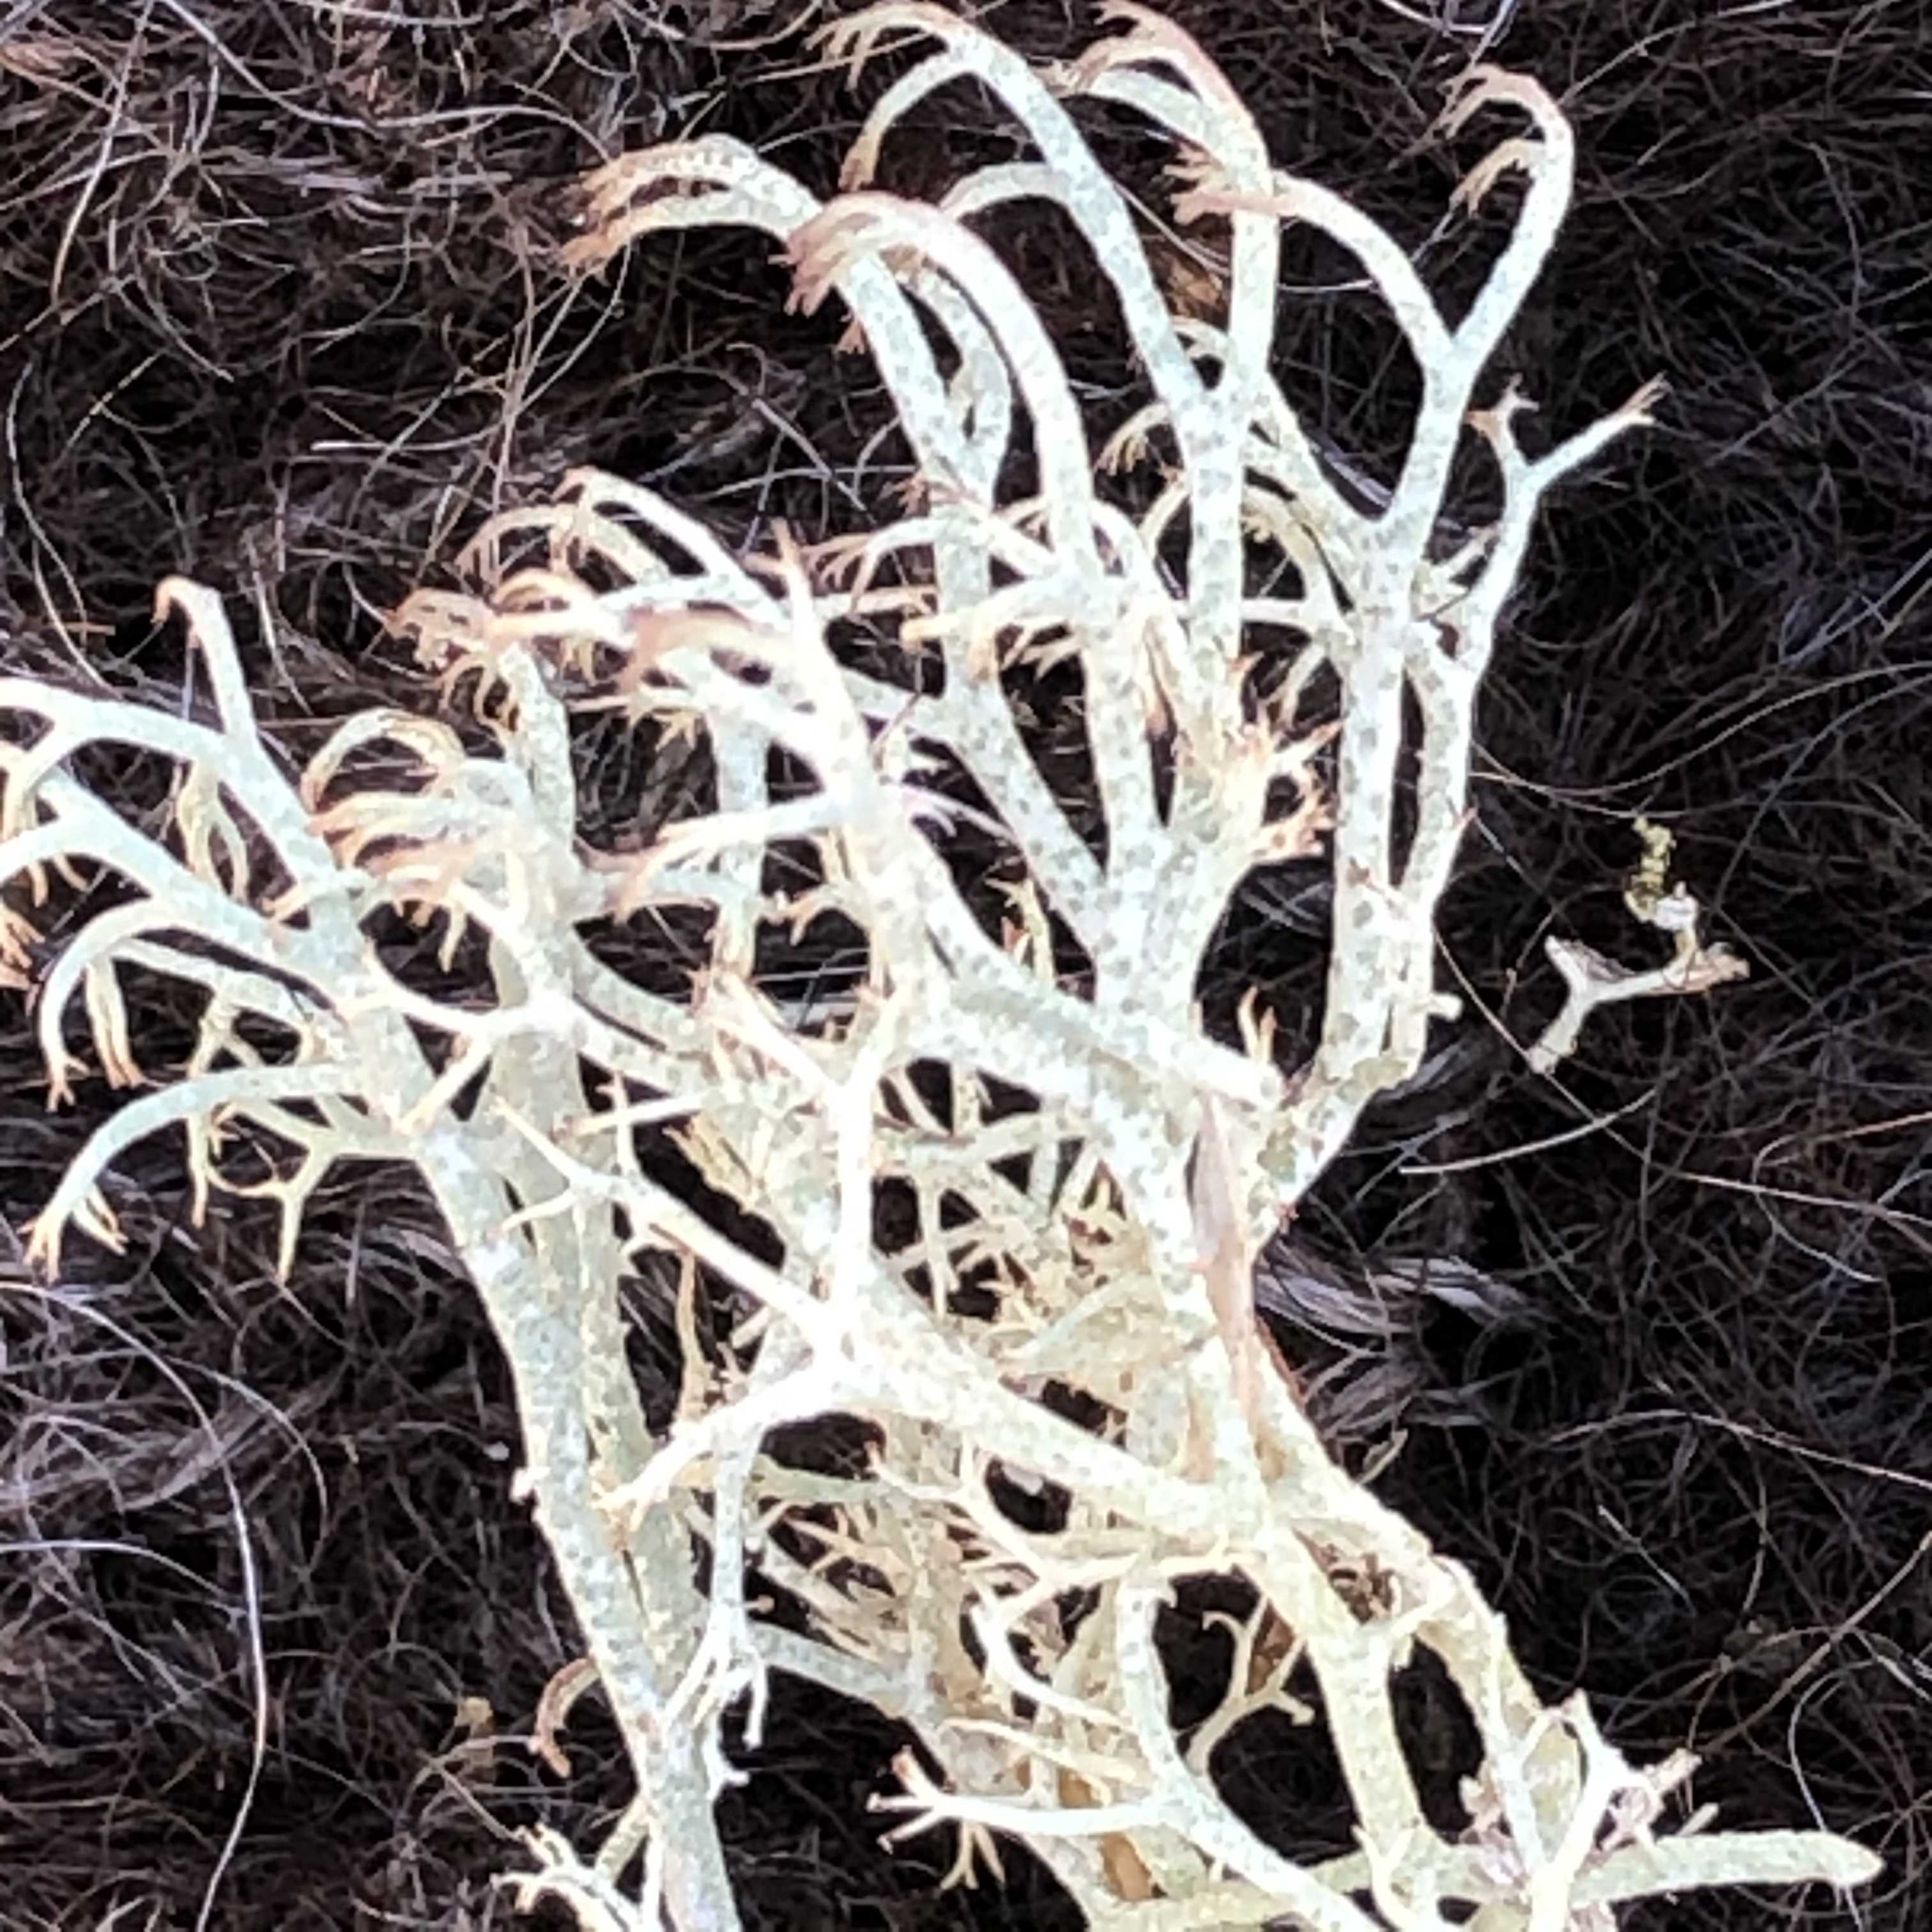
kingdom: Fungi
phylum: Ascomycota
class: Lecanoromycetes
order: Lecanorales
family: Cladoniaceae
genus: Cladonia
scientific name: Cladonia ciliata
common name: spinkel rensdyrlav
